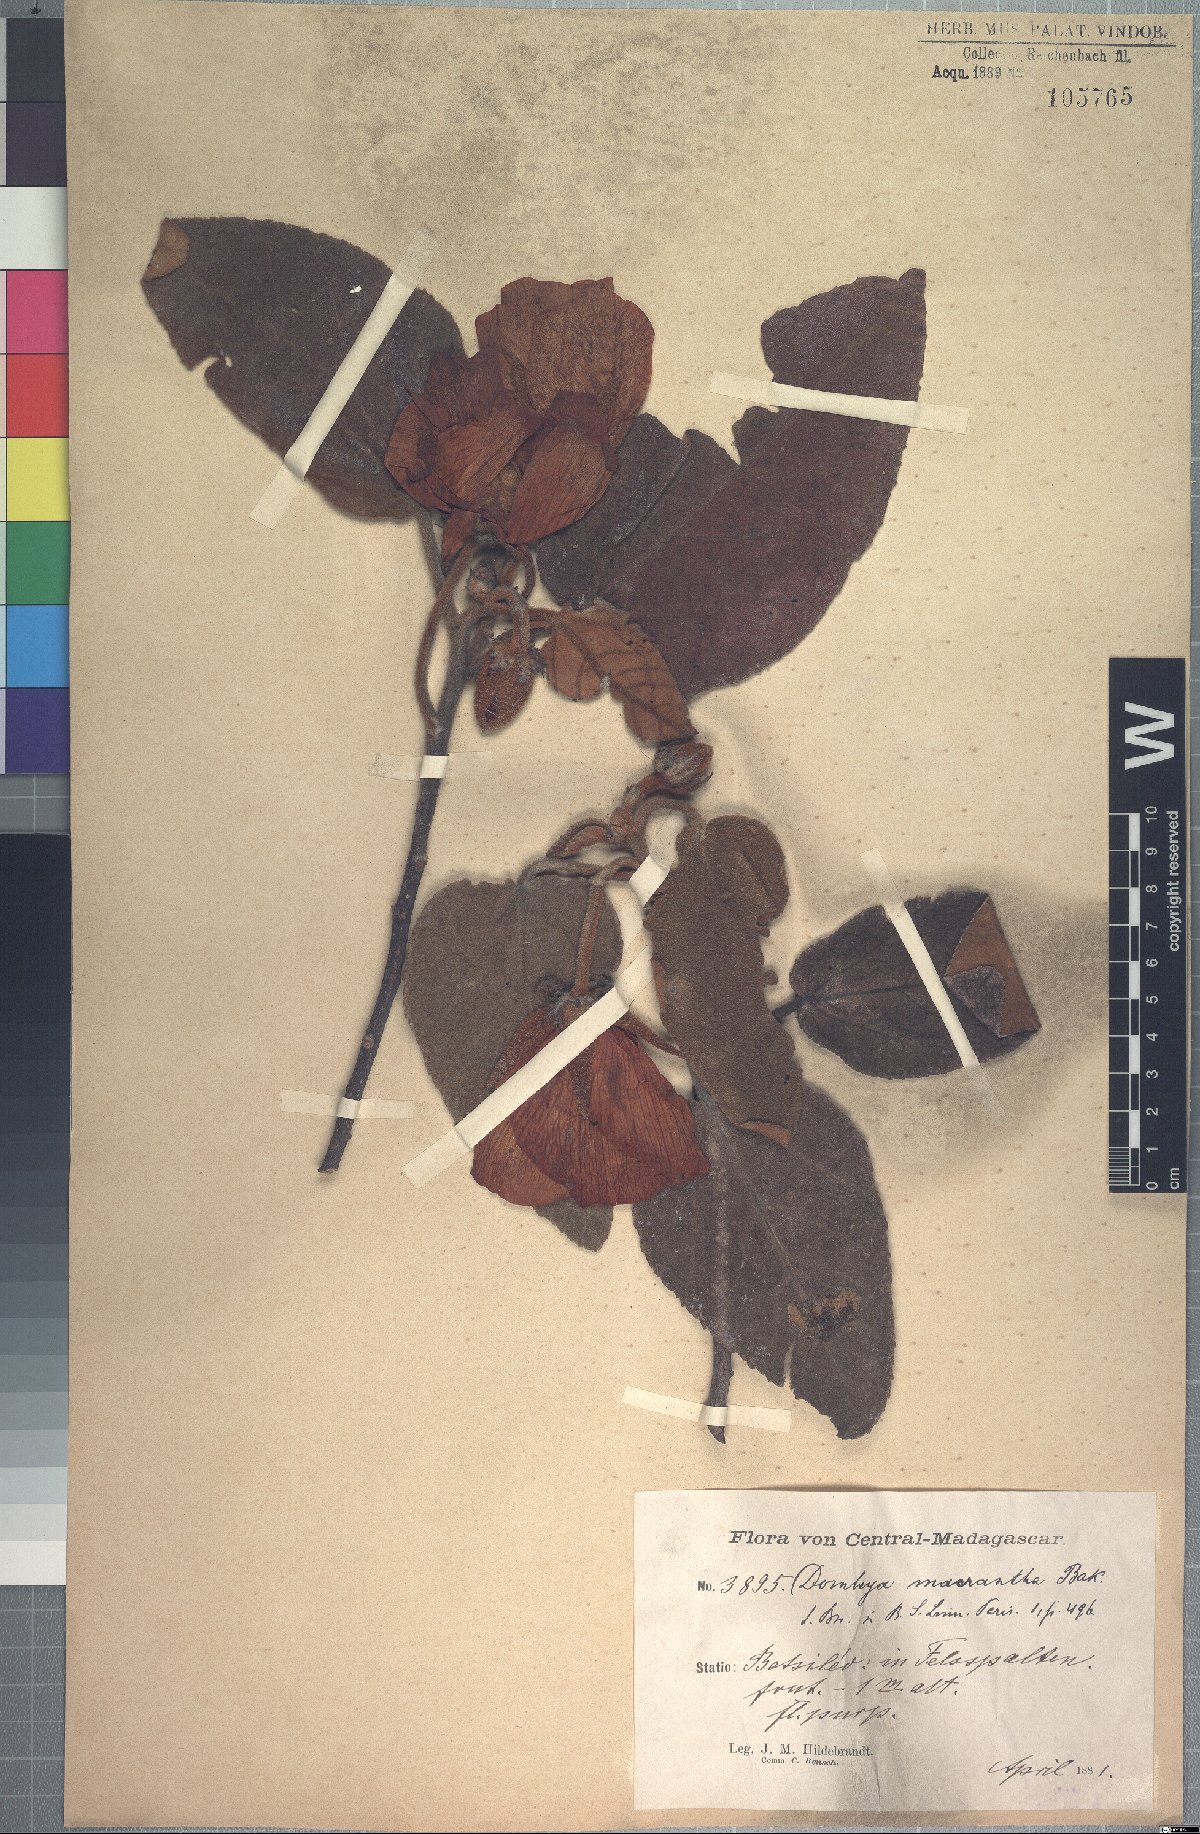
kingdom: Plantae
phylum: Tracheophyta
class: Magnoliopsida
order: Malvales
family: Malvaceae
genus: Andringitra
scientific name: Andringitra macrantha
